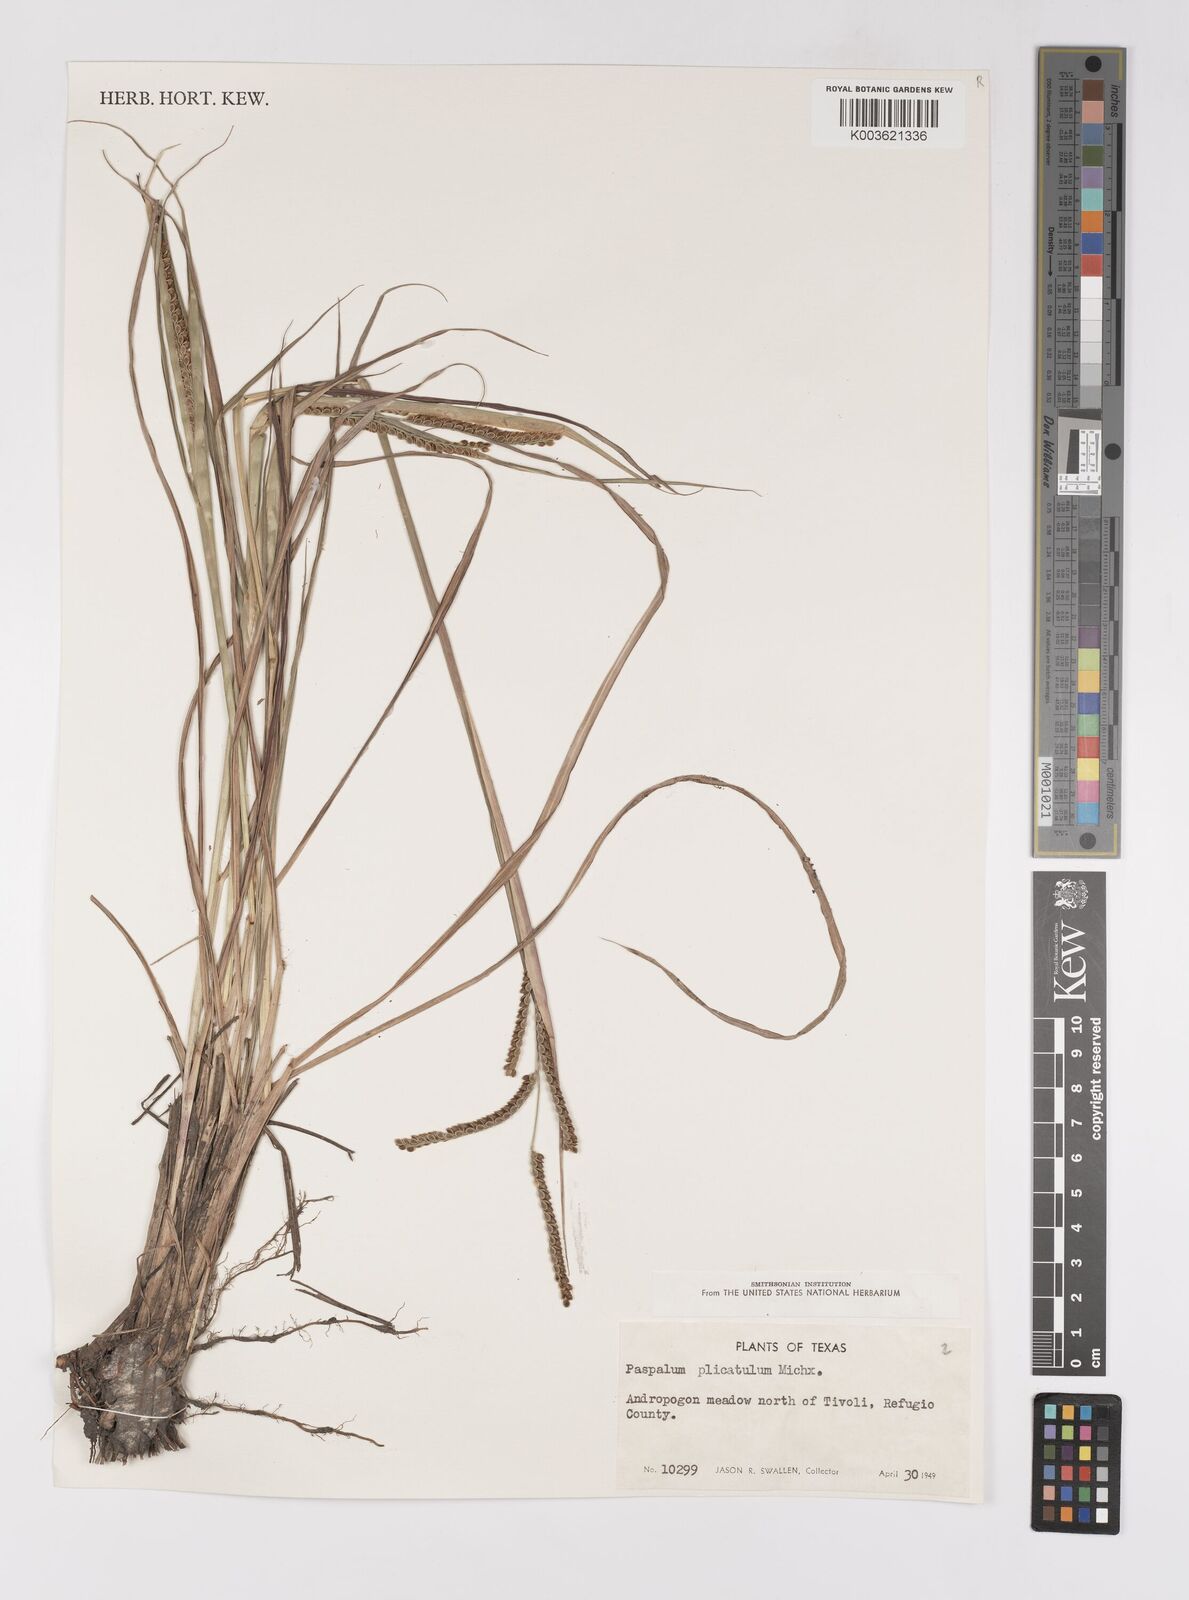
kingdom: Plantae
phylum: Tracheophyta
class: Liliopsida
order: Poales
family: Poaceae
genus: Paspalum
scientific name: Paspalum plicatulum
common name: Top paspalum
